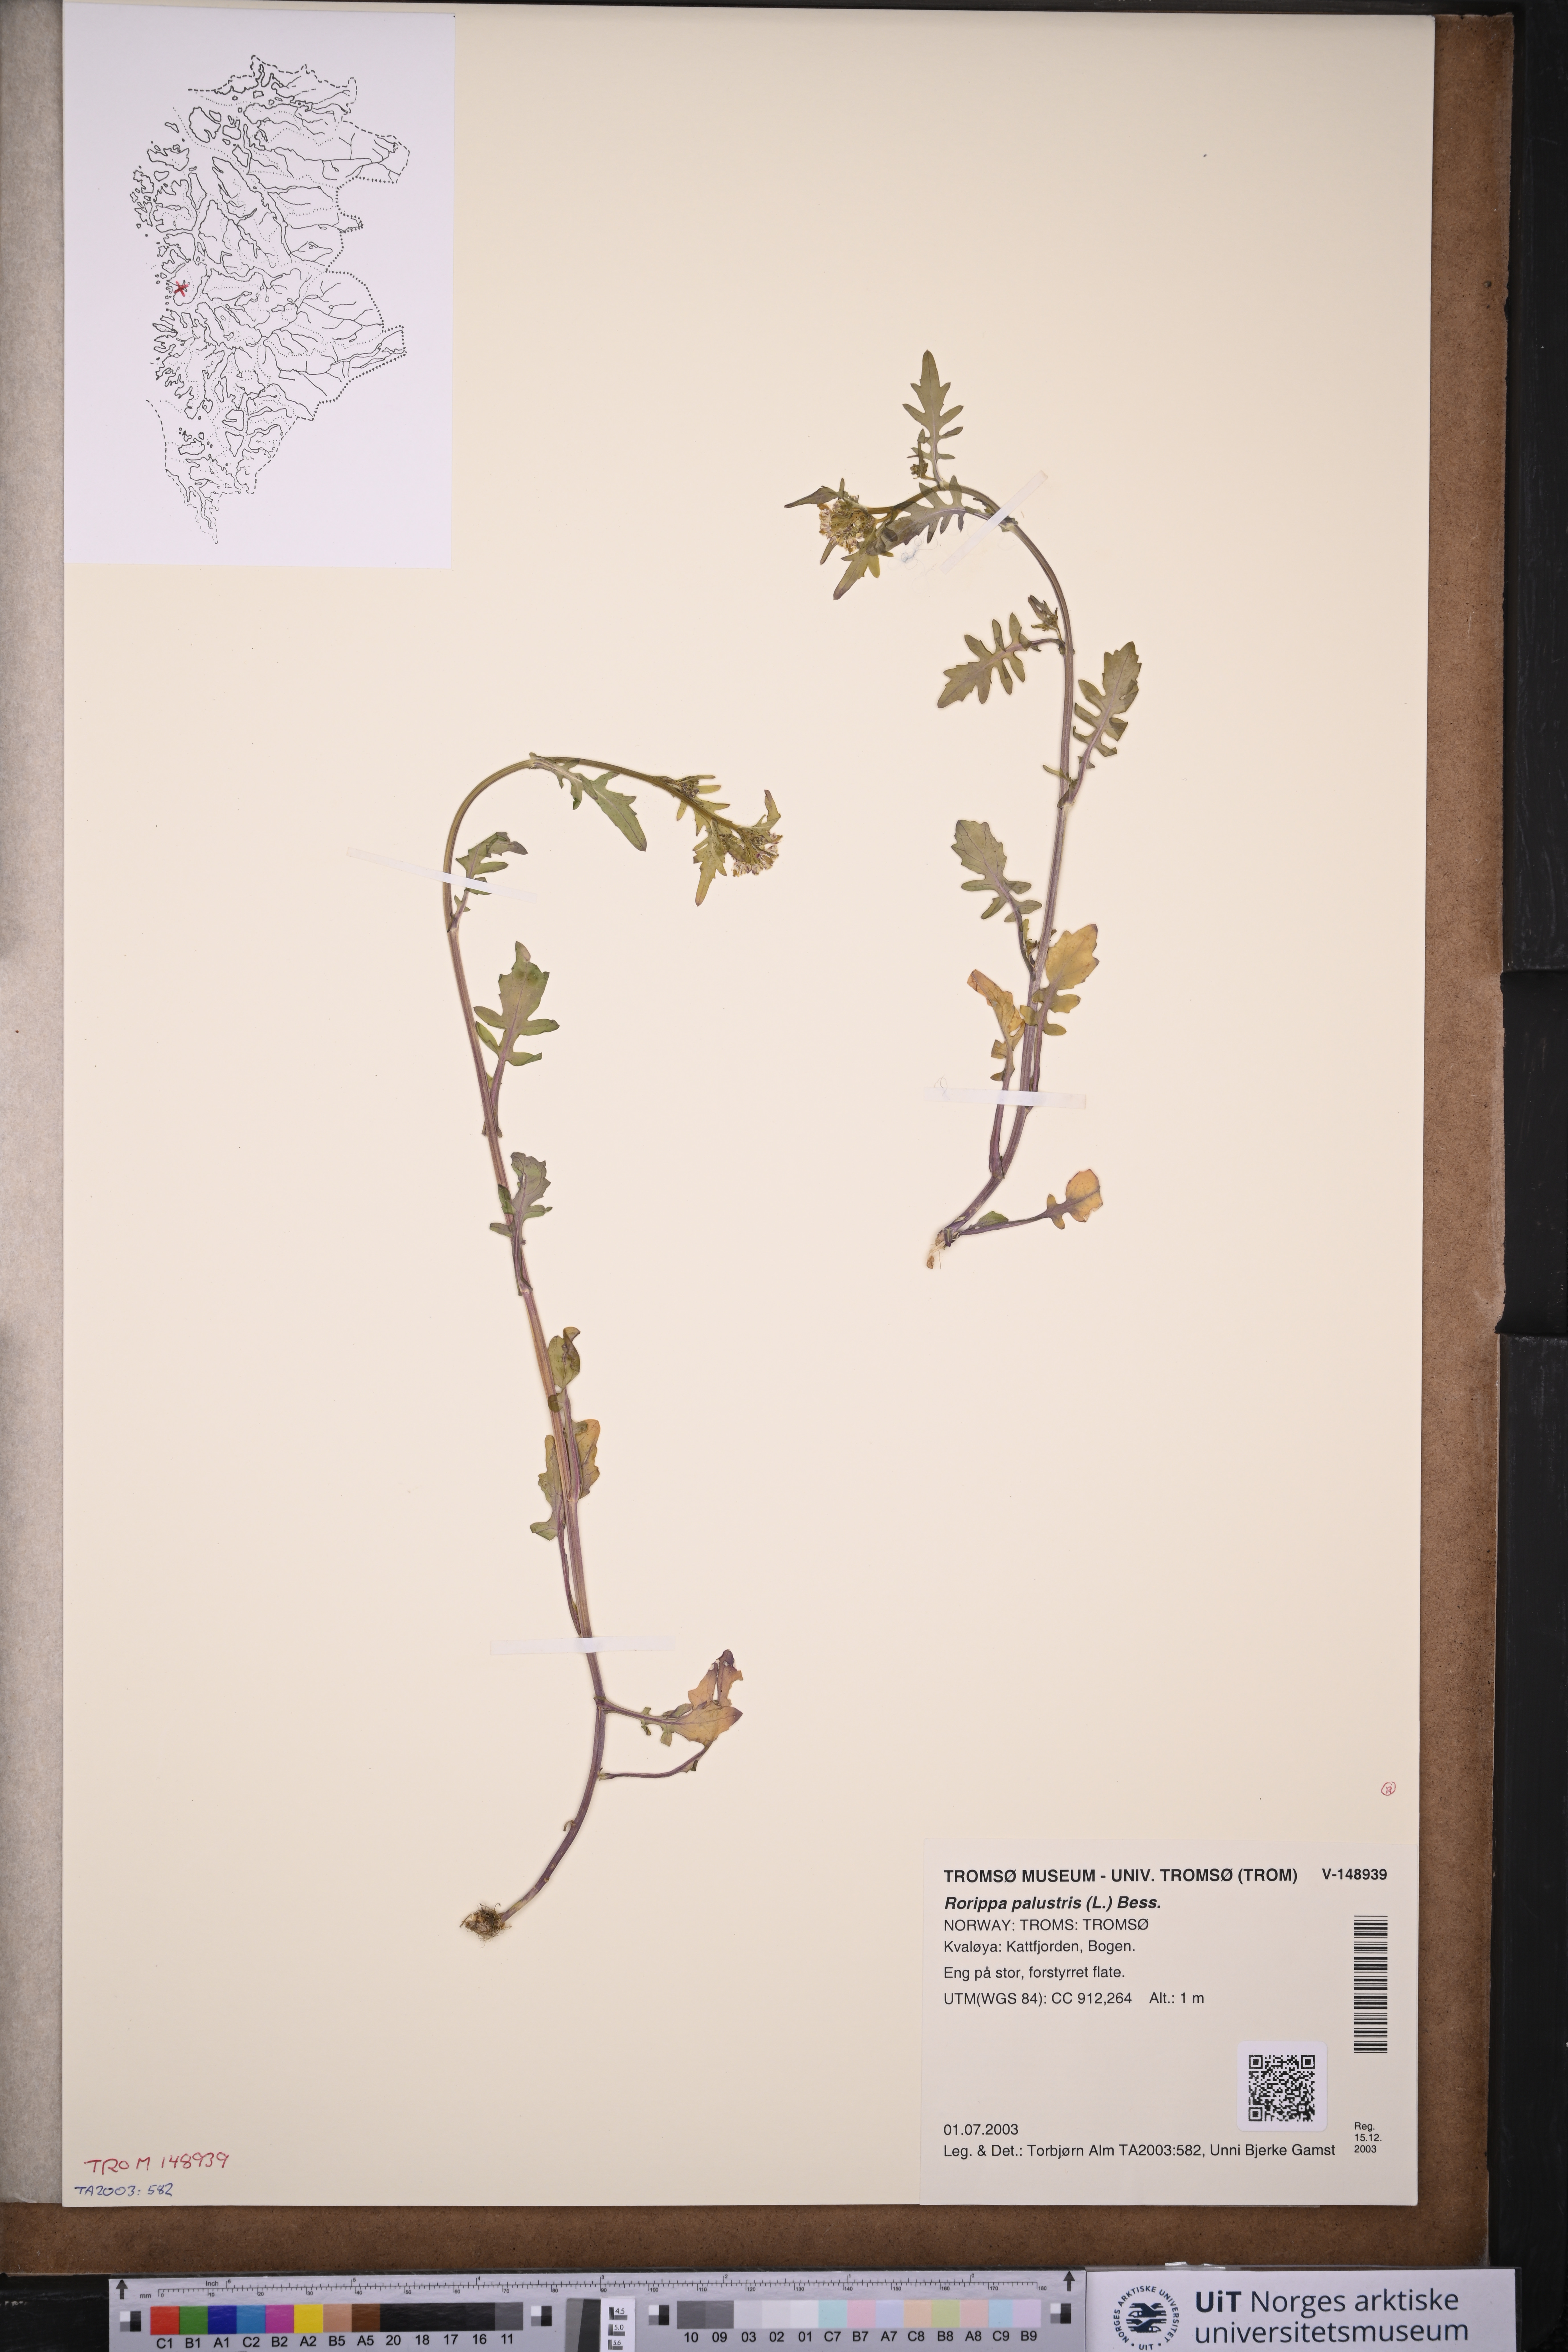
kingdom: Plantae
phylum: Tracheophyta
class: Magnoliopsida
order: Brassicales
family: Brassicaceae
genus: Rorippa
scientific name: Rorippa palustris
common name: Marsh yellow-cress
